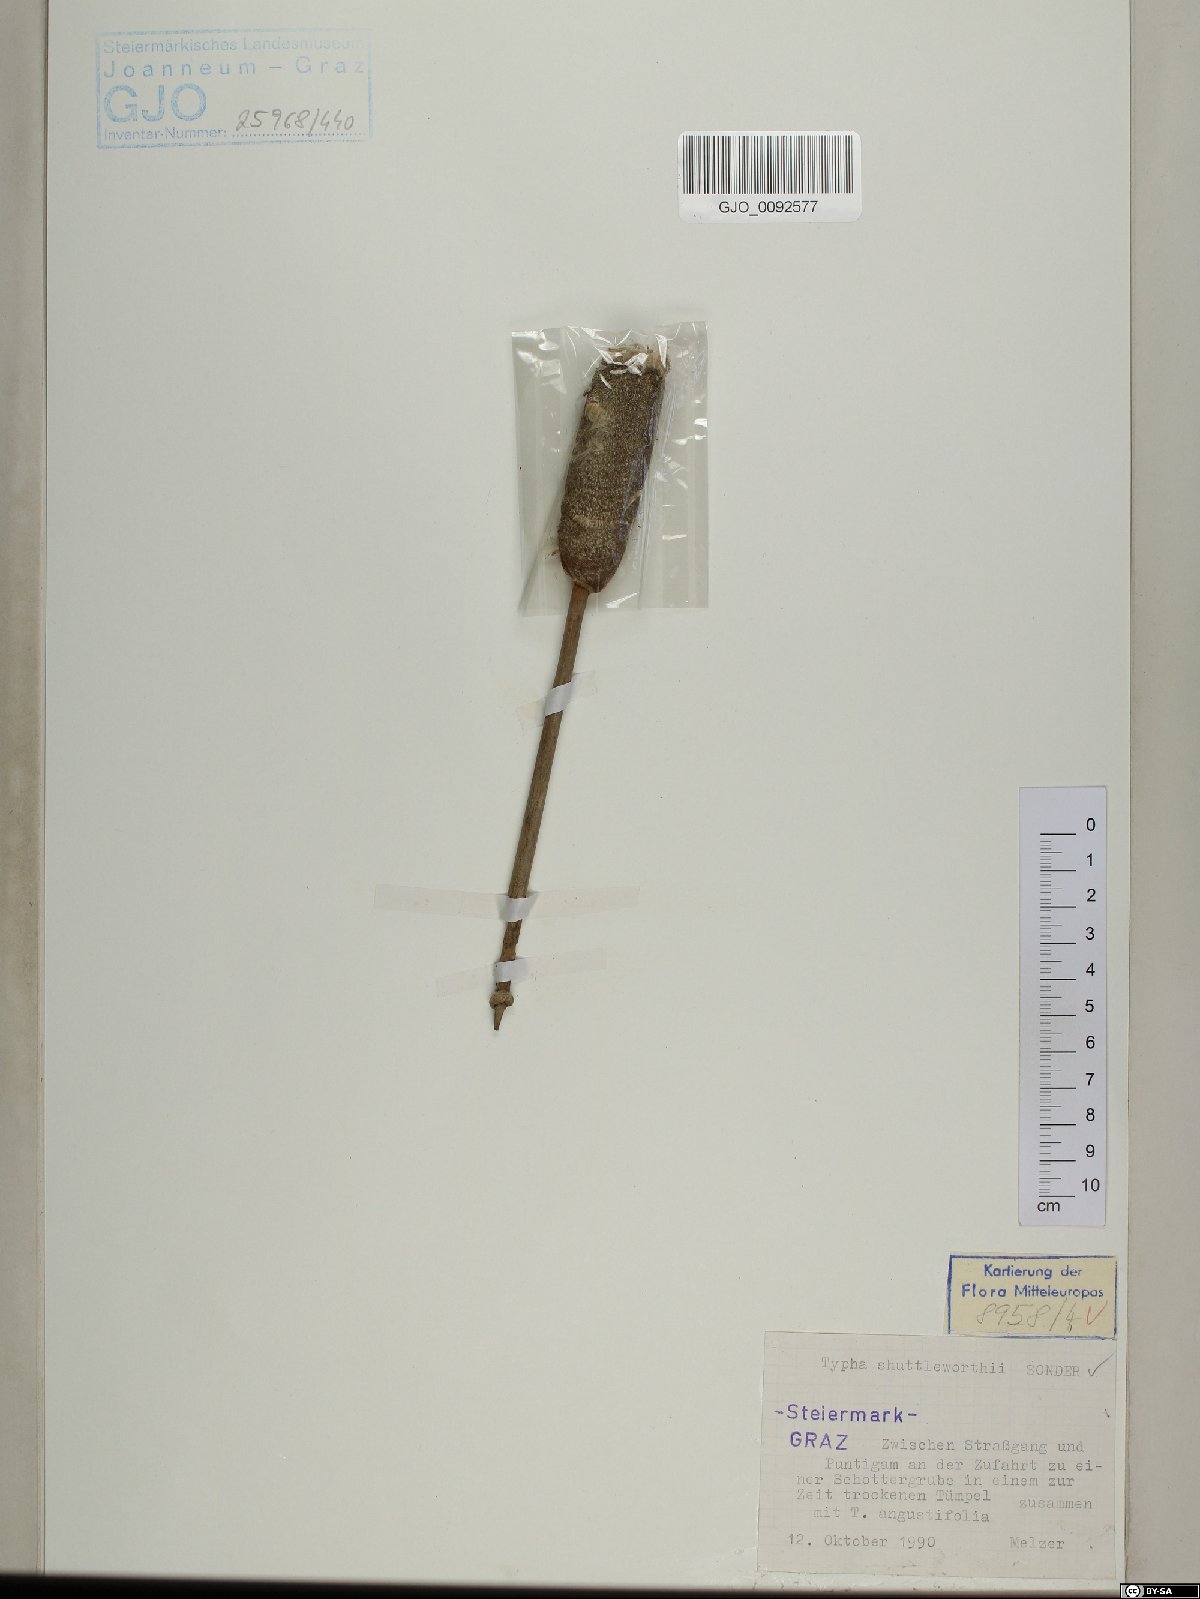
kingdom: Plantae
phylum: Tracheophyta
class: Liliopsida
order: Poales
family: Typhaceae
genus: Typha
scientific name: Typha shuttleworthii
